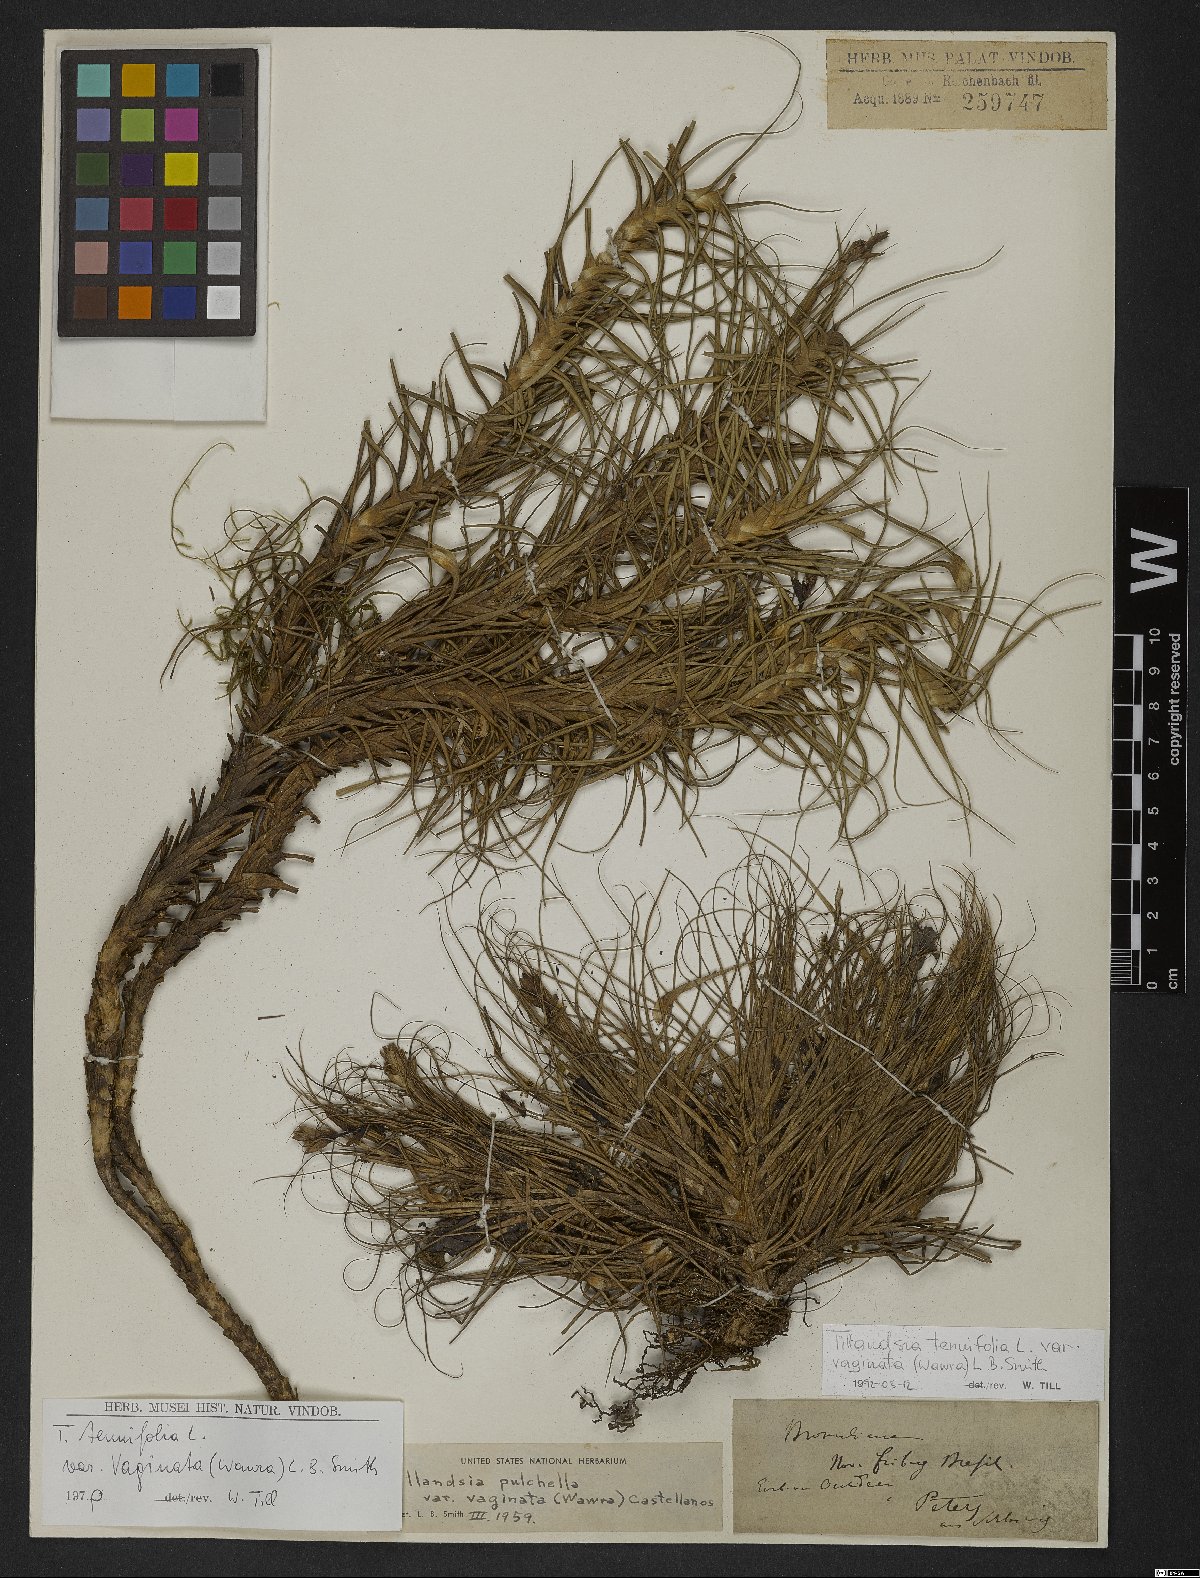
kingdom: Plantae
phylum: Tracheophyta
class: Liliopsida
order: Poales
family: Bromeliaceae
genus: Tillandsia
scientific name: Tillandsia tenuifolia
